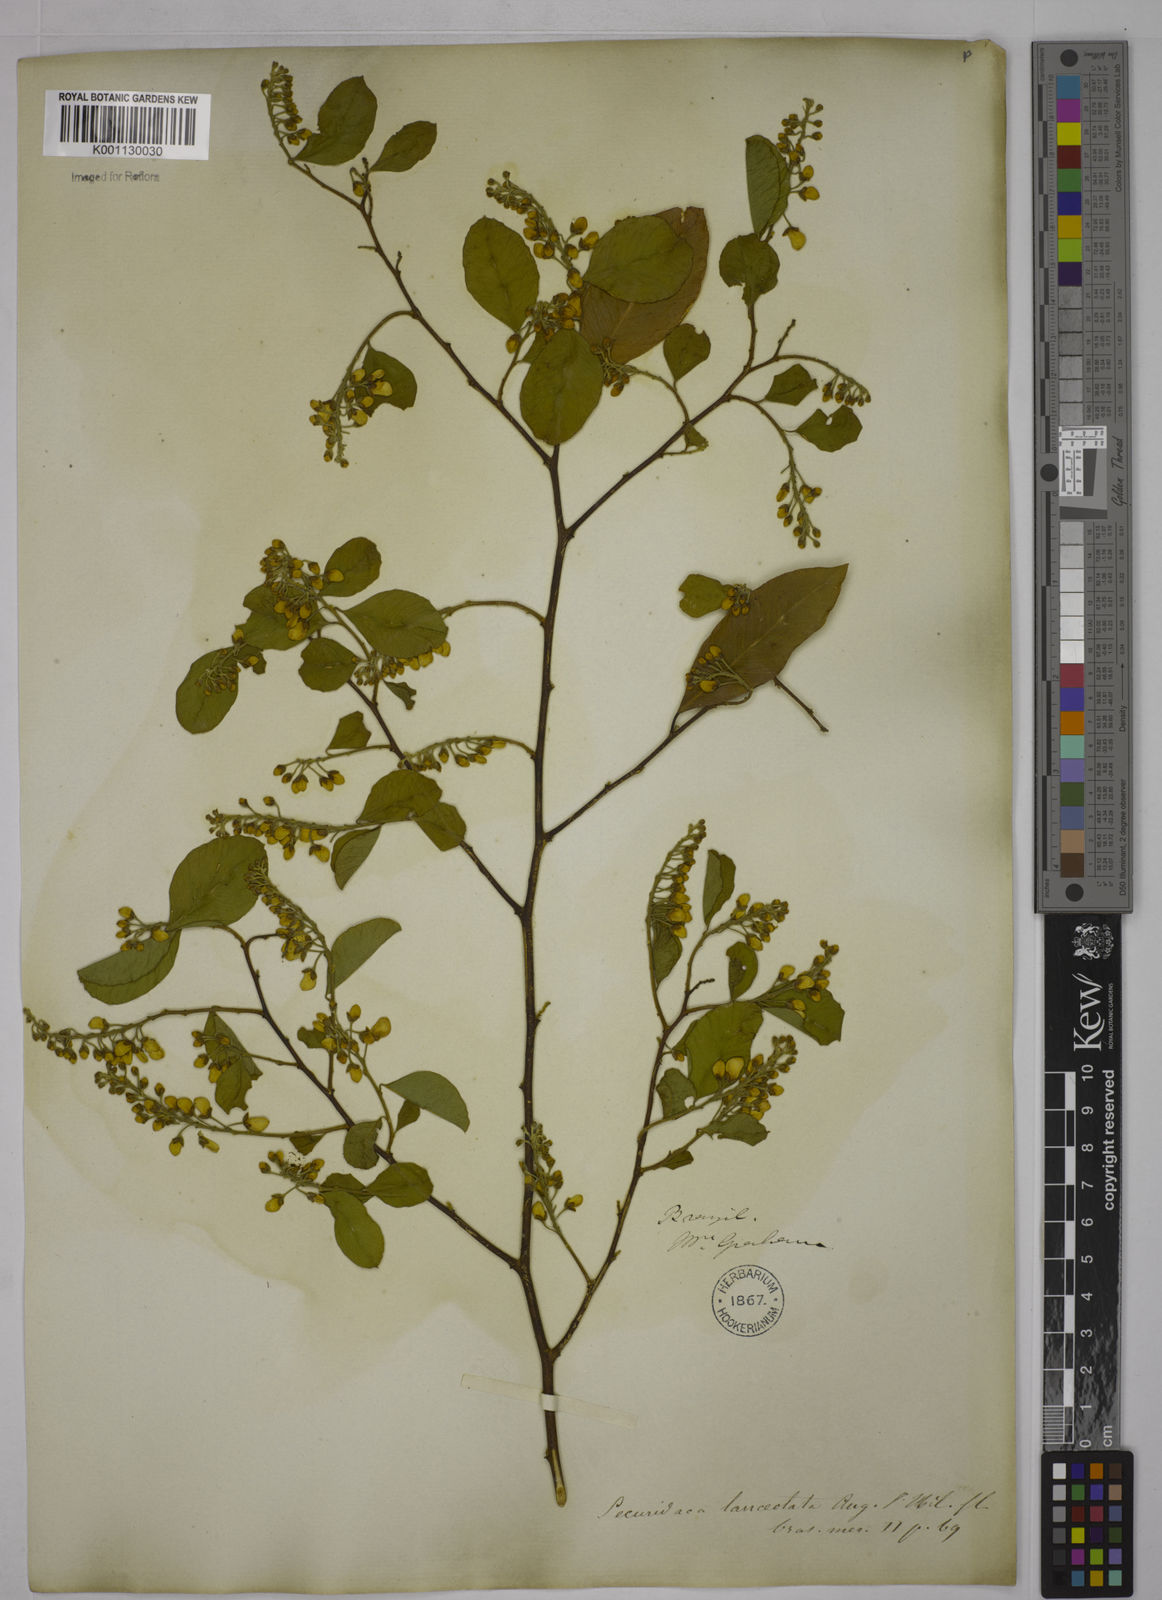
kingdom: Plantae
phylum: Tracheophyta
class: Magnoliopsida
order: Fabales
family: Polygalaceae
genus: Securidaca
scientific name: Securidaca lanceolata
